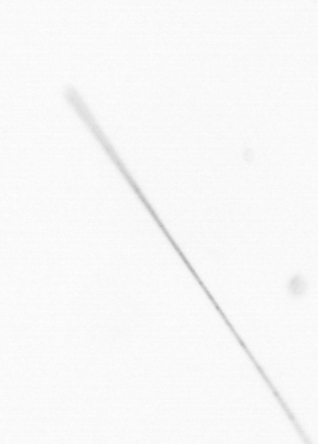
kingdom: Chromista
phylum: Ochrophyta
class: Bacillariophyceae
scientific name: Bacillariophyceae
